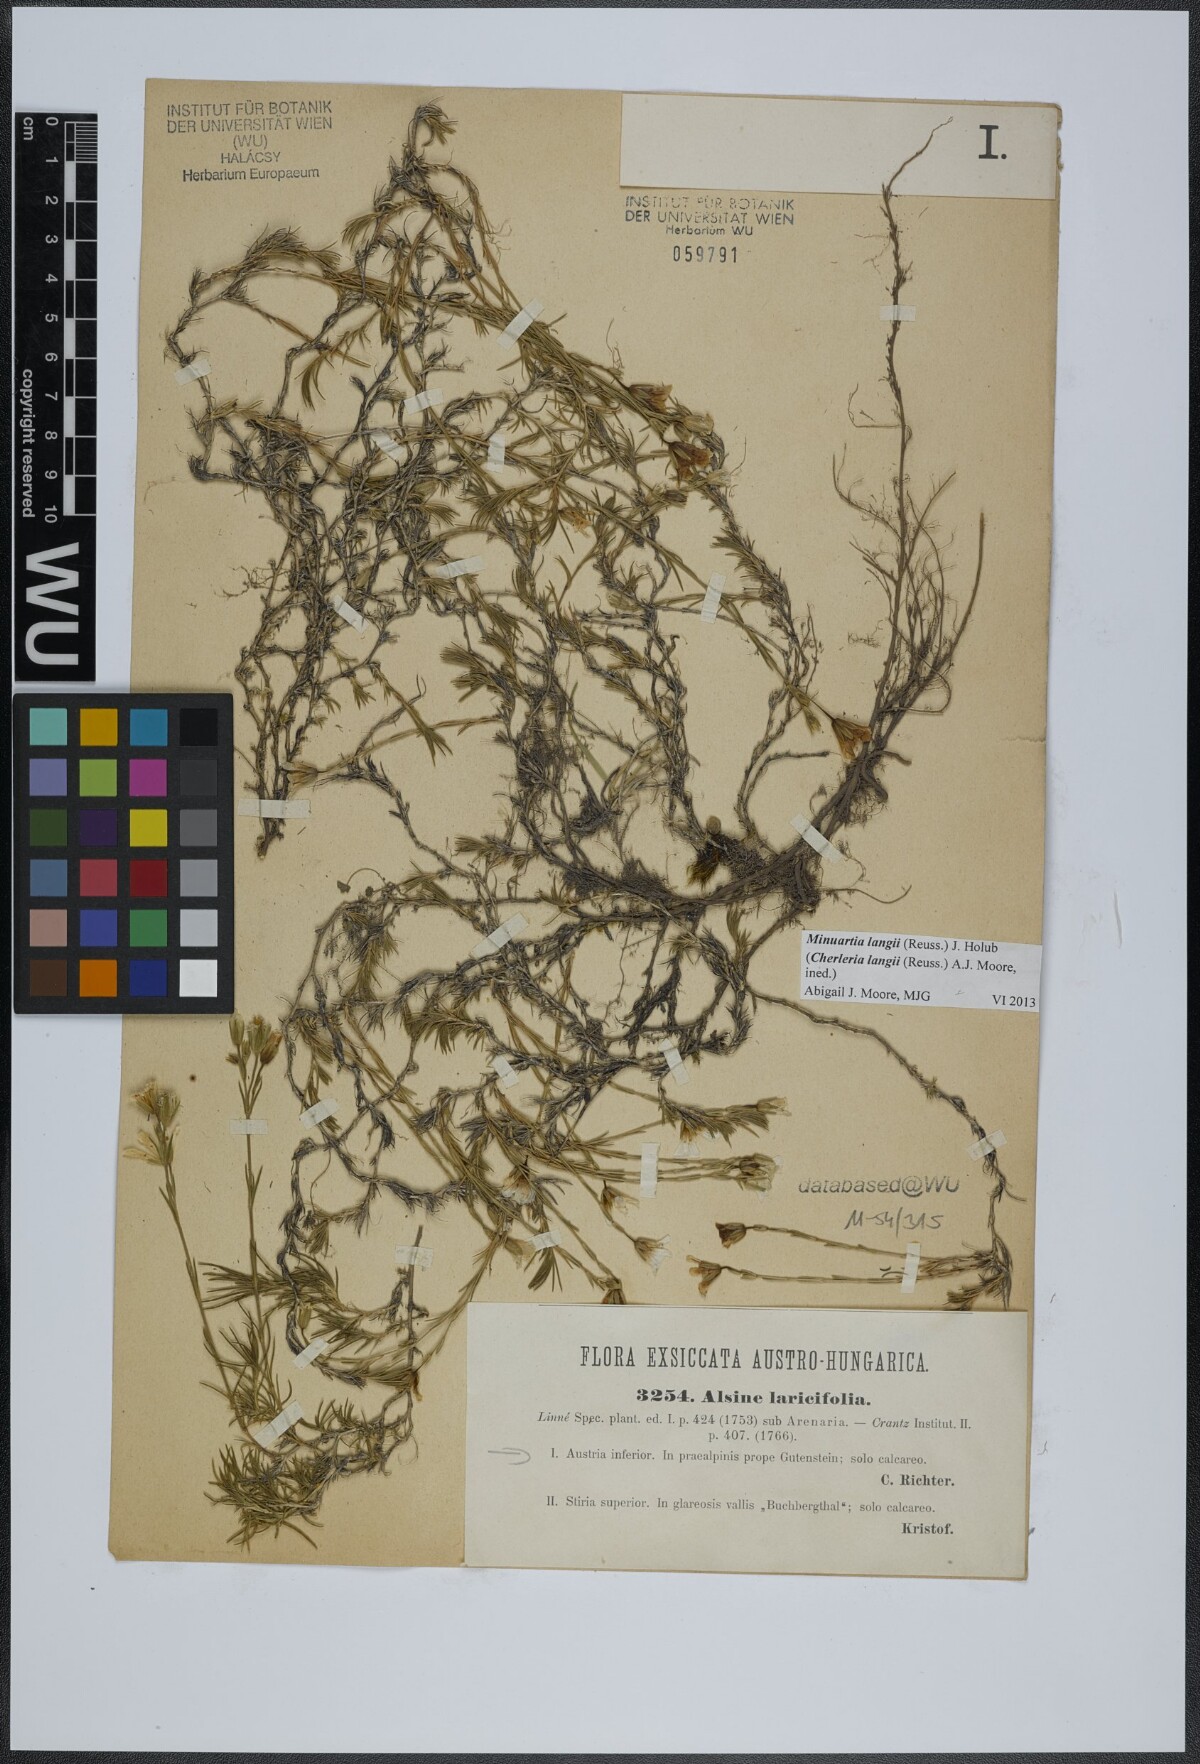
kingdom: Plantae
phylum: Tracheophyta
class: Magnoliopsida
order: Caryophyllales
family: Caryophyllaceae
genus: Cherleria
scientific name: Cherleria langii
